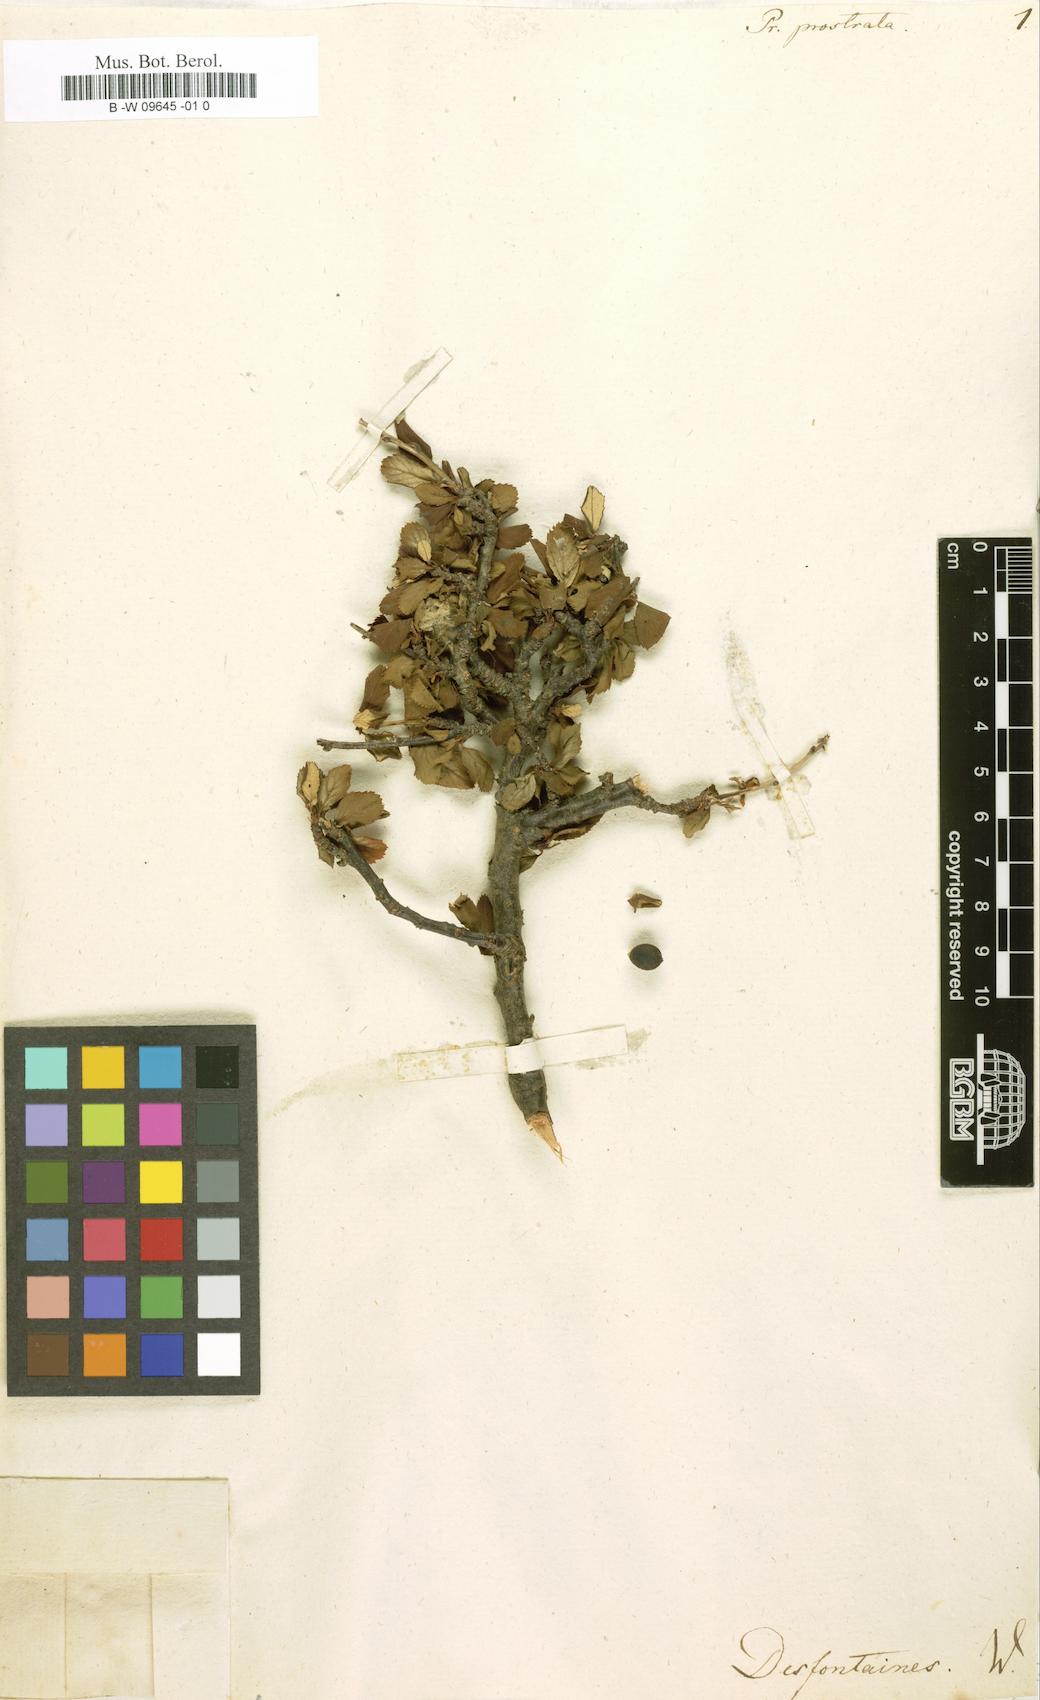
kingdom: Plantae
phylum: Tracheophyta
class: Magnoliopsida
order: Rosales
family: Rosaceae
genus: Prunus
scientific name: Prunus prostrata
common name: Mountain cherry
